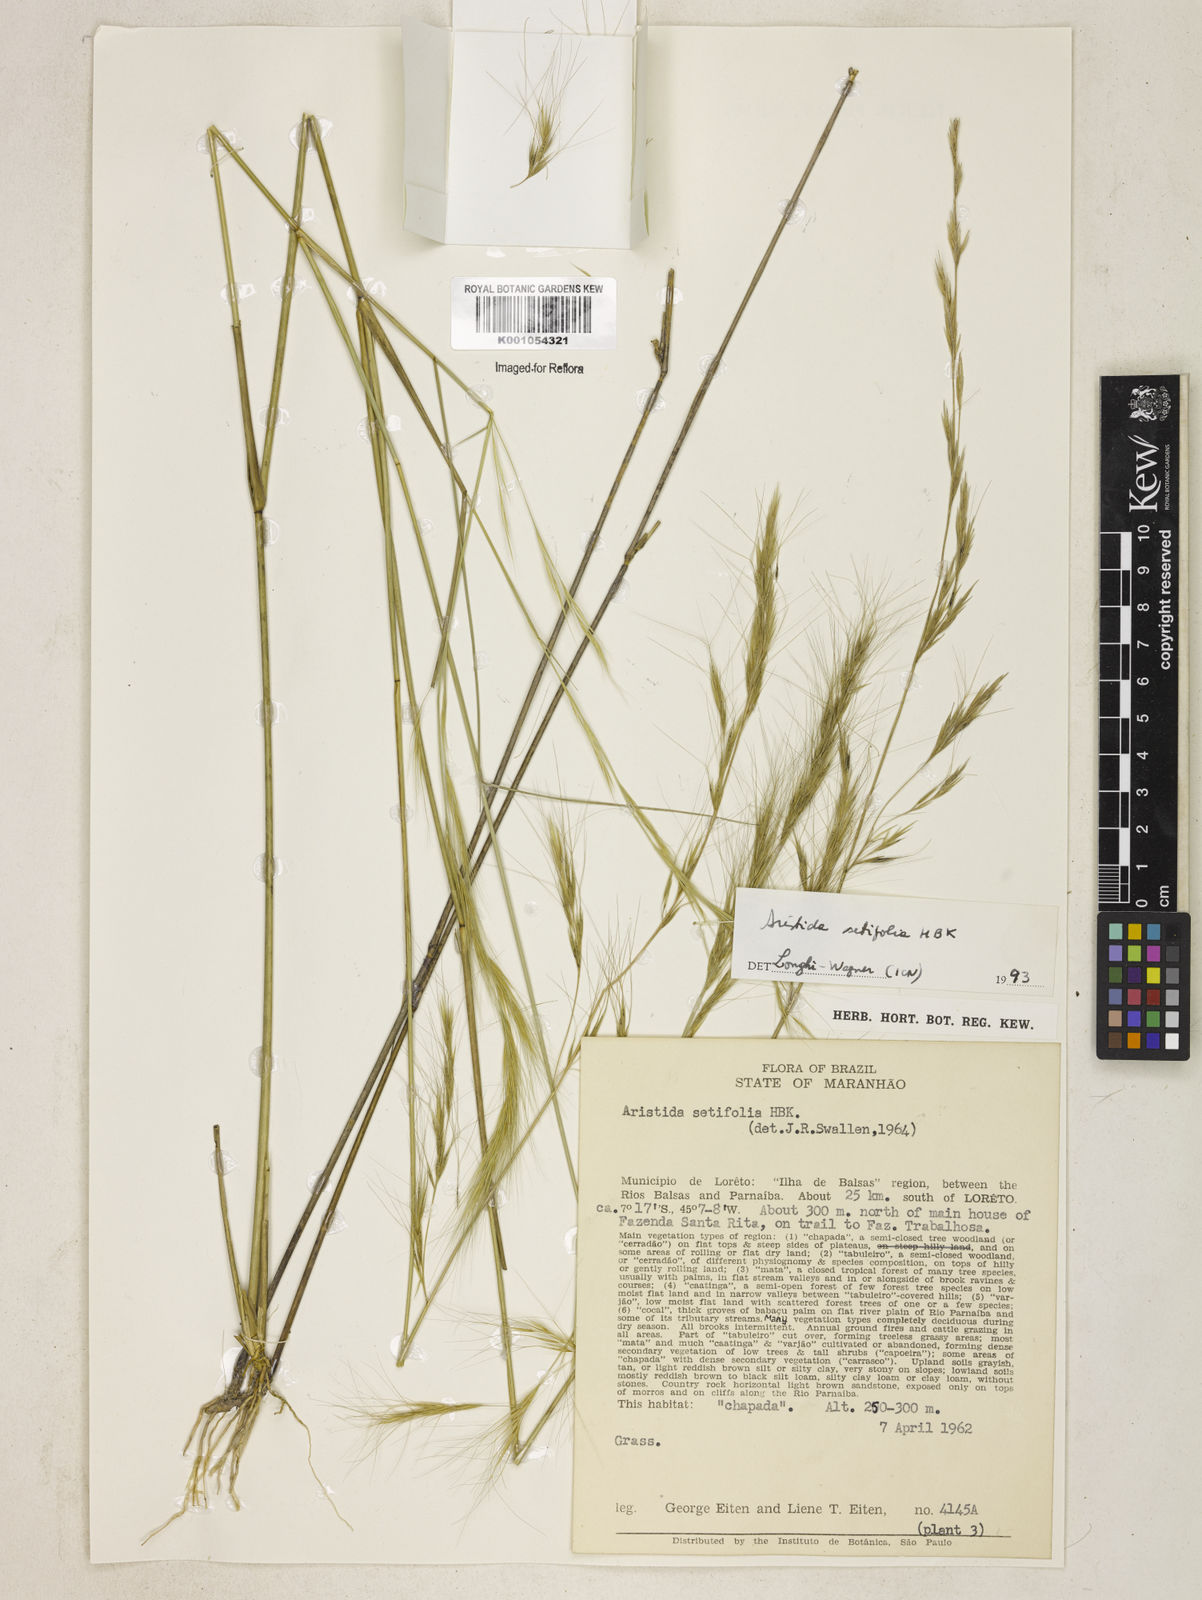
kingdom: Plantae
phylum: Tracheophyta
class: Liliopsida
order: Poales
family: Poaceae
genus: Aristida
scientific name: Aristida setifolia
